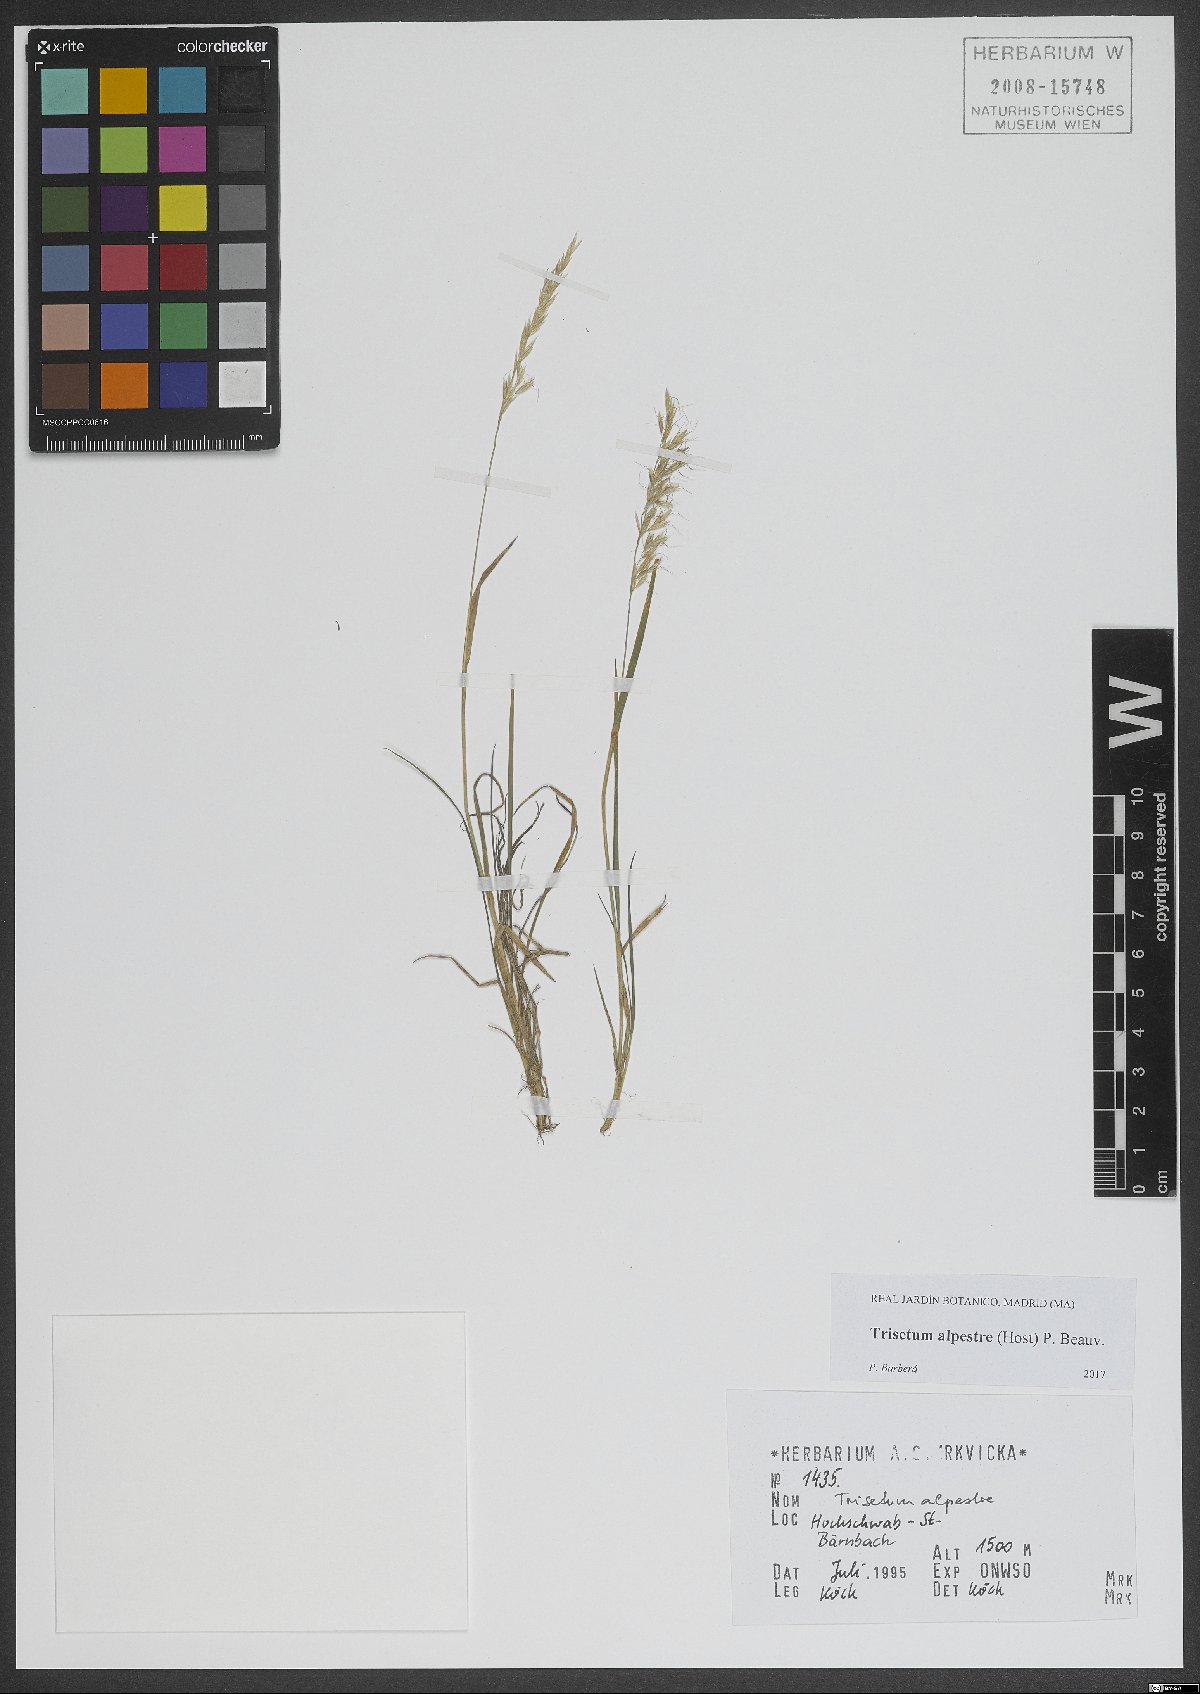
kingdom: Plantae
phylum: Tracheophyta
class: Liliopsida
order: Poales
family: Poaceae
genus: Trisetum
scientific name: Trisetum alpestre
